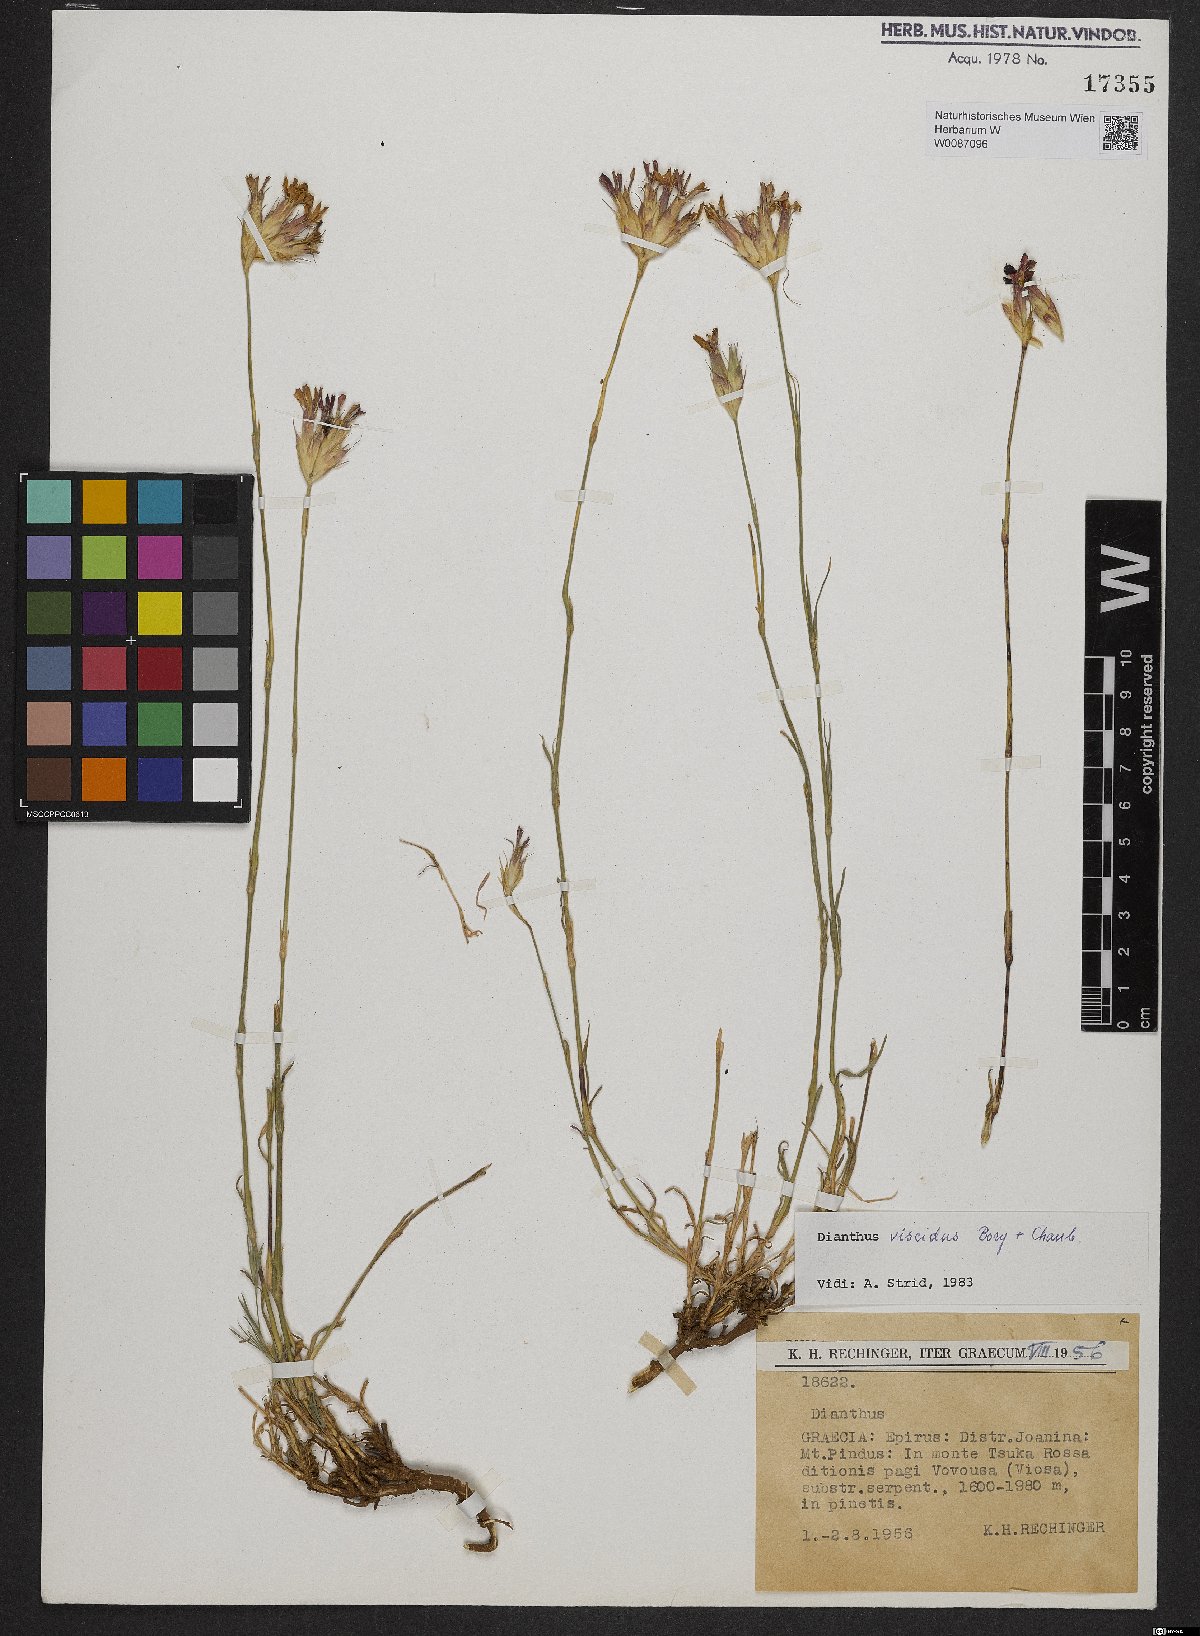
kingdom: Plantae
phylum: Tracheophyta
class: Magnoliopsida
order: Caryophyllales
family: Caryophyllaceae
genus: Dianthus
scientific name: Dianthus viscidus
